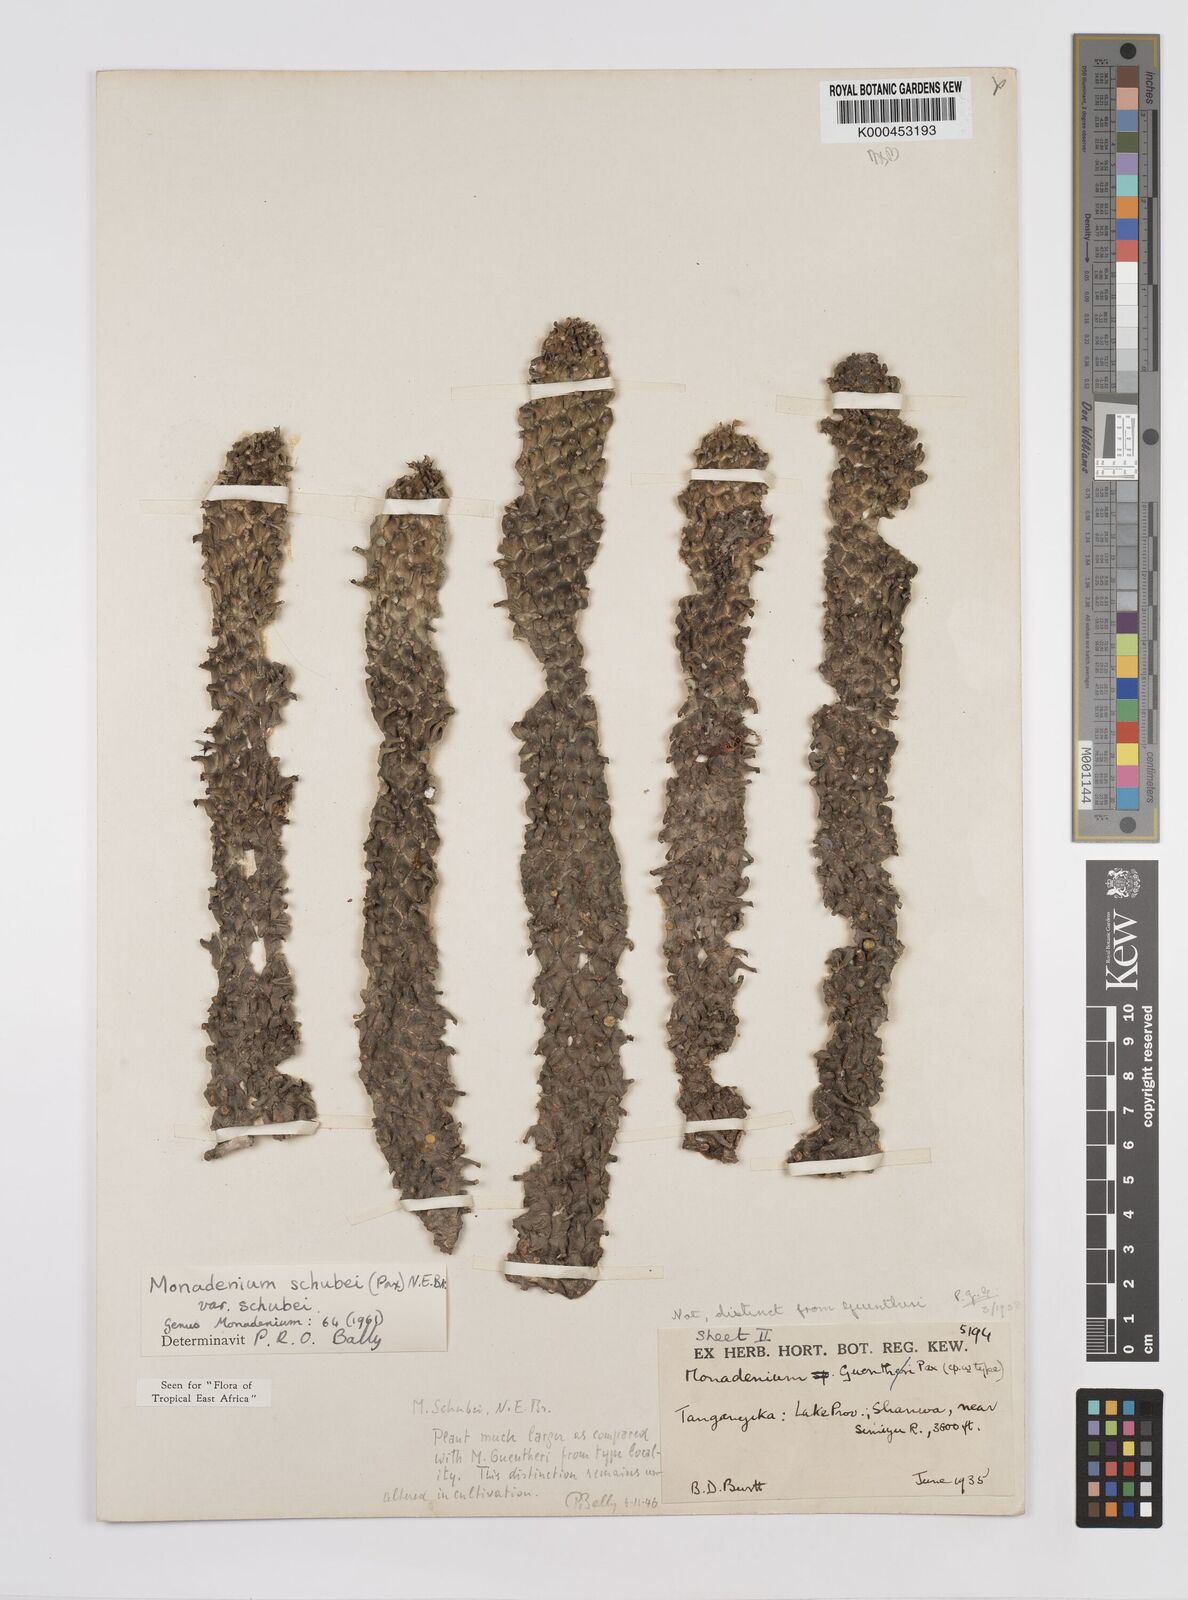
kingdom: Plantae
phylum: Tracheophyta
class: Magnoliopsida
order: Malpighiales
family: Euphorbiaceae
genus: Euphorbia
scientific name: Euphorbia schubei
